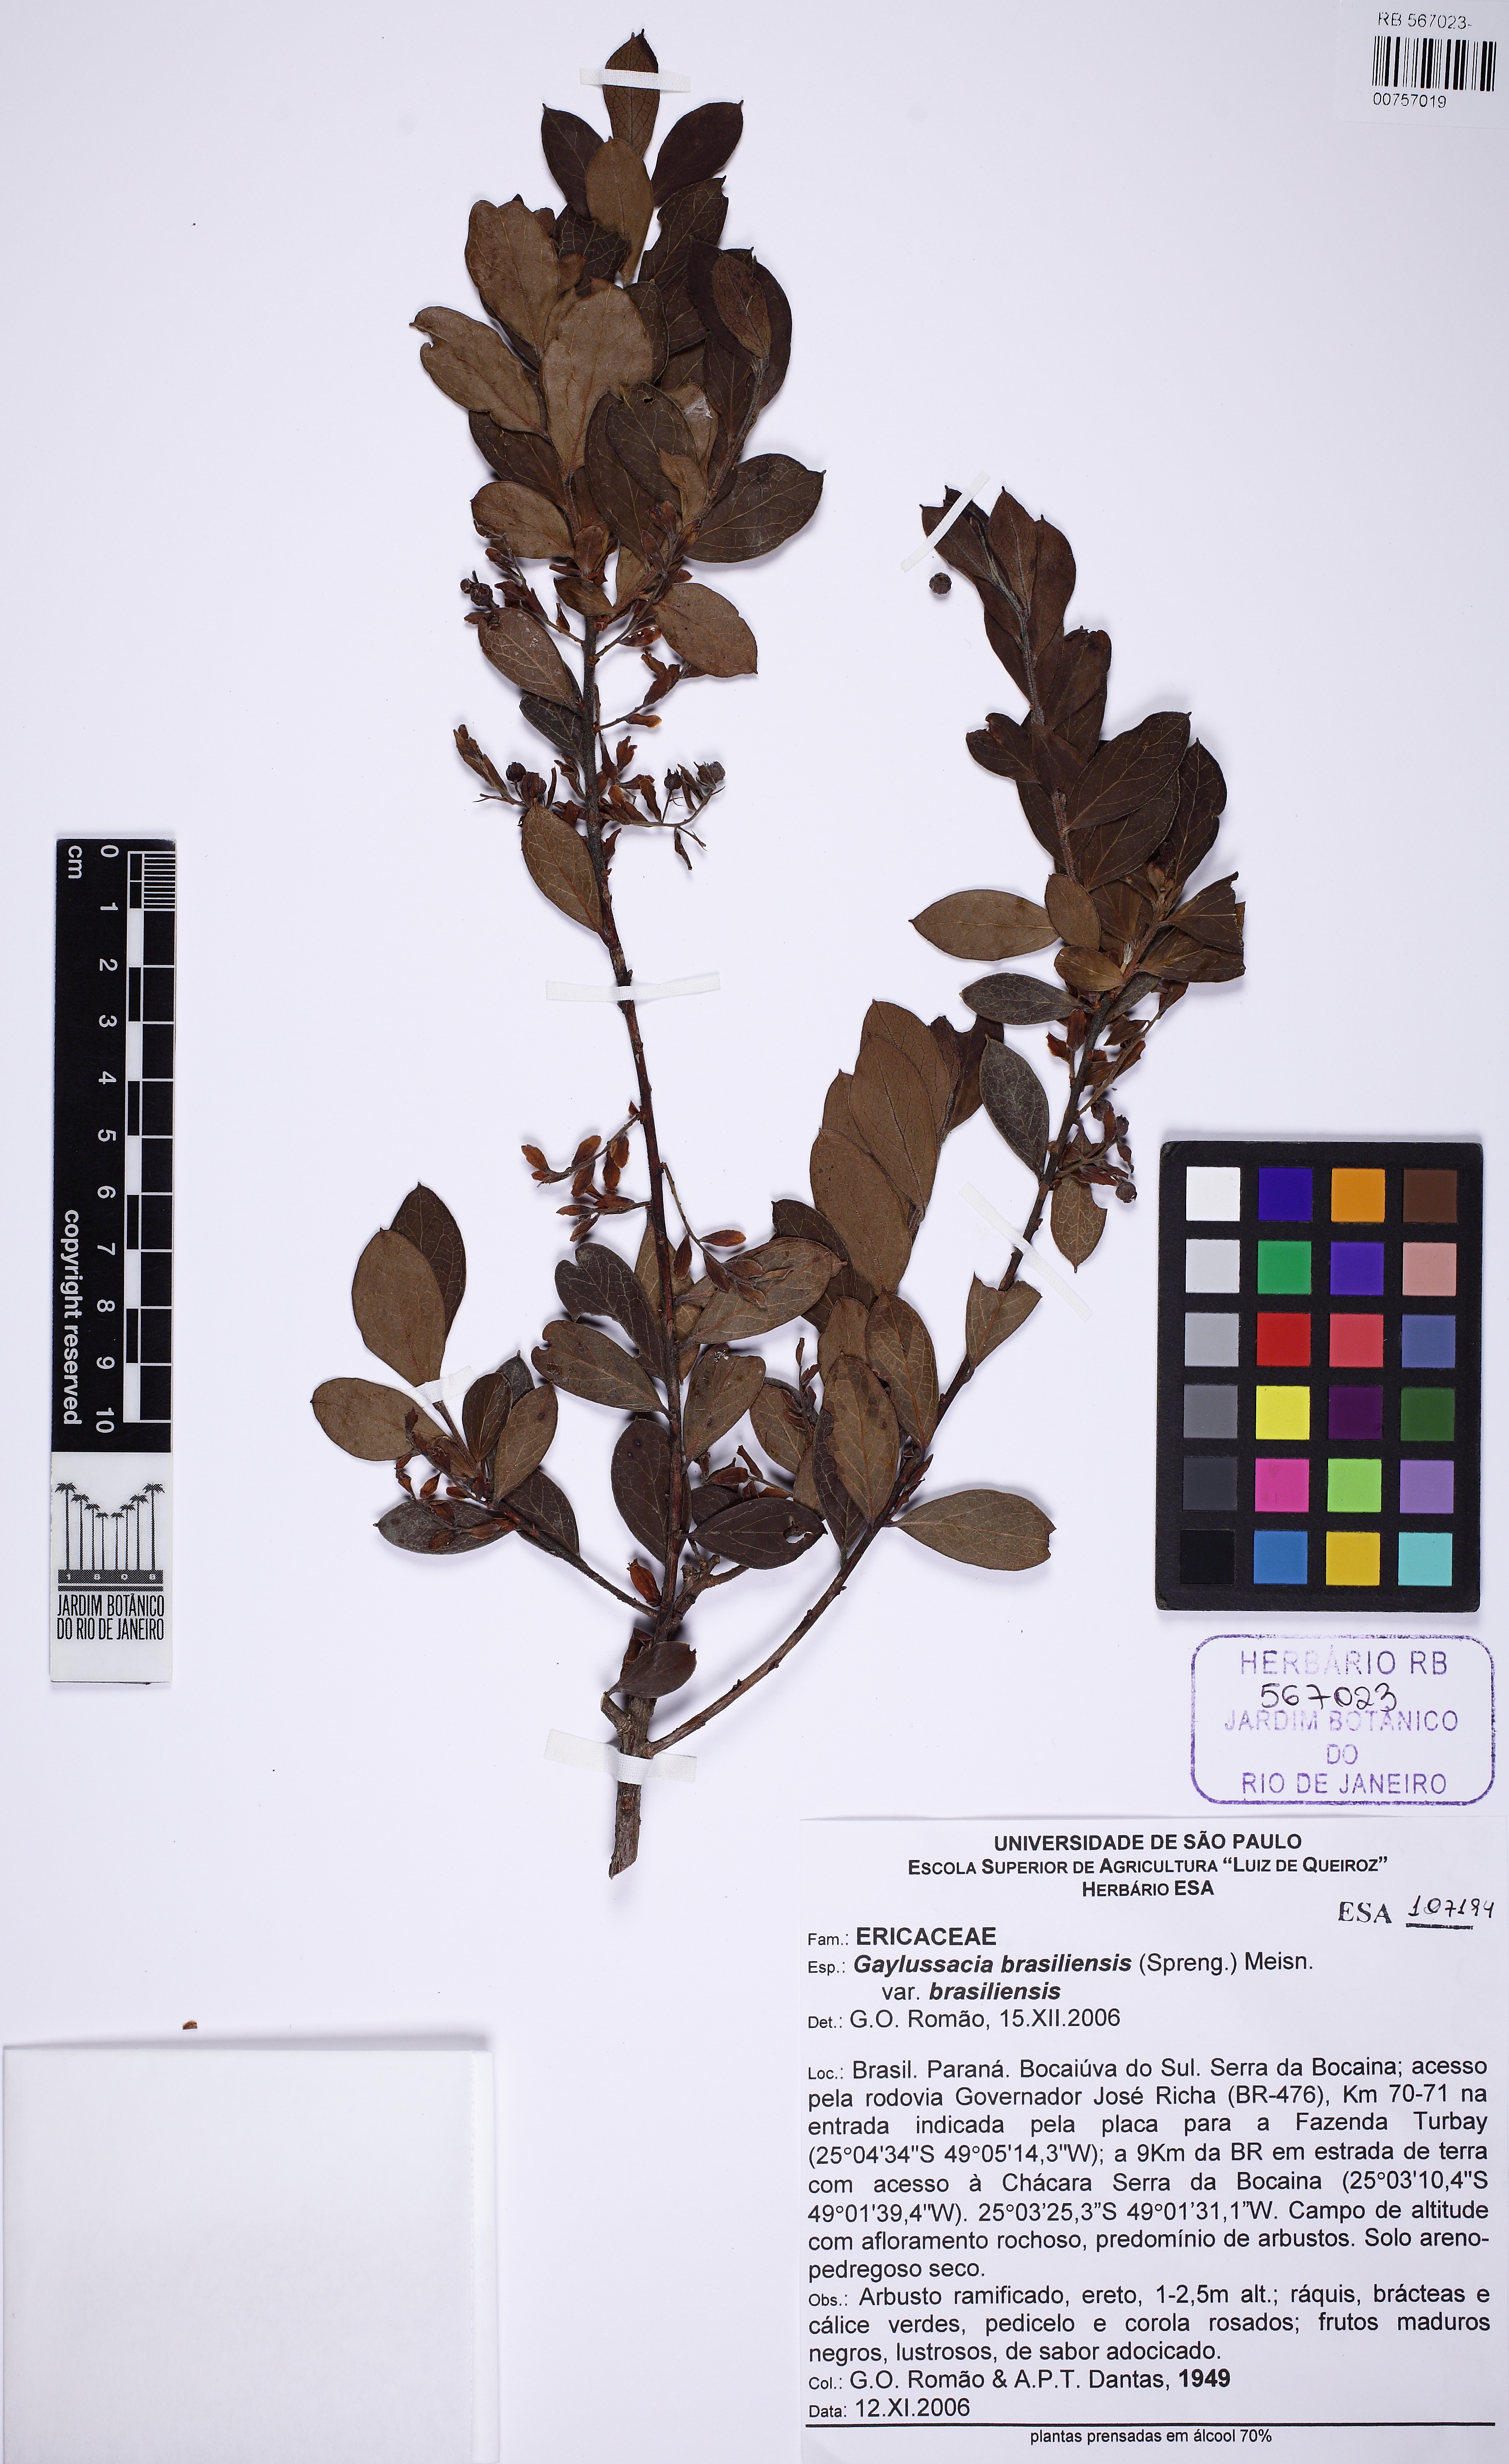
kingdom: Plantae
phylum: Tracheophyta
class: Magnoliopsida
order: Ericales
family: Ericaceae
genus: Gaylussacia
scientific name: Gaylussacia brasiliensis
